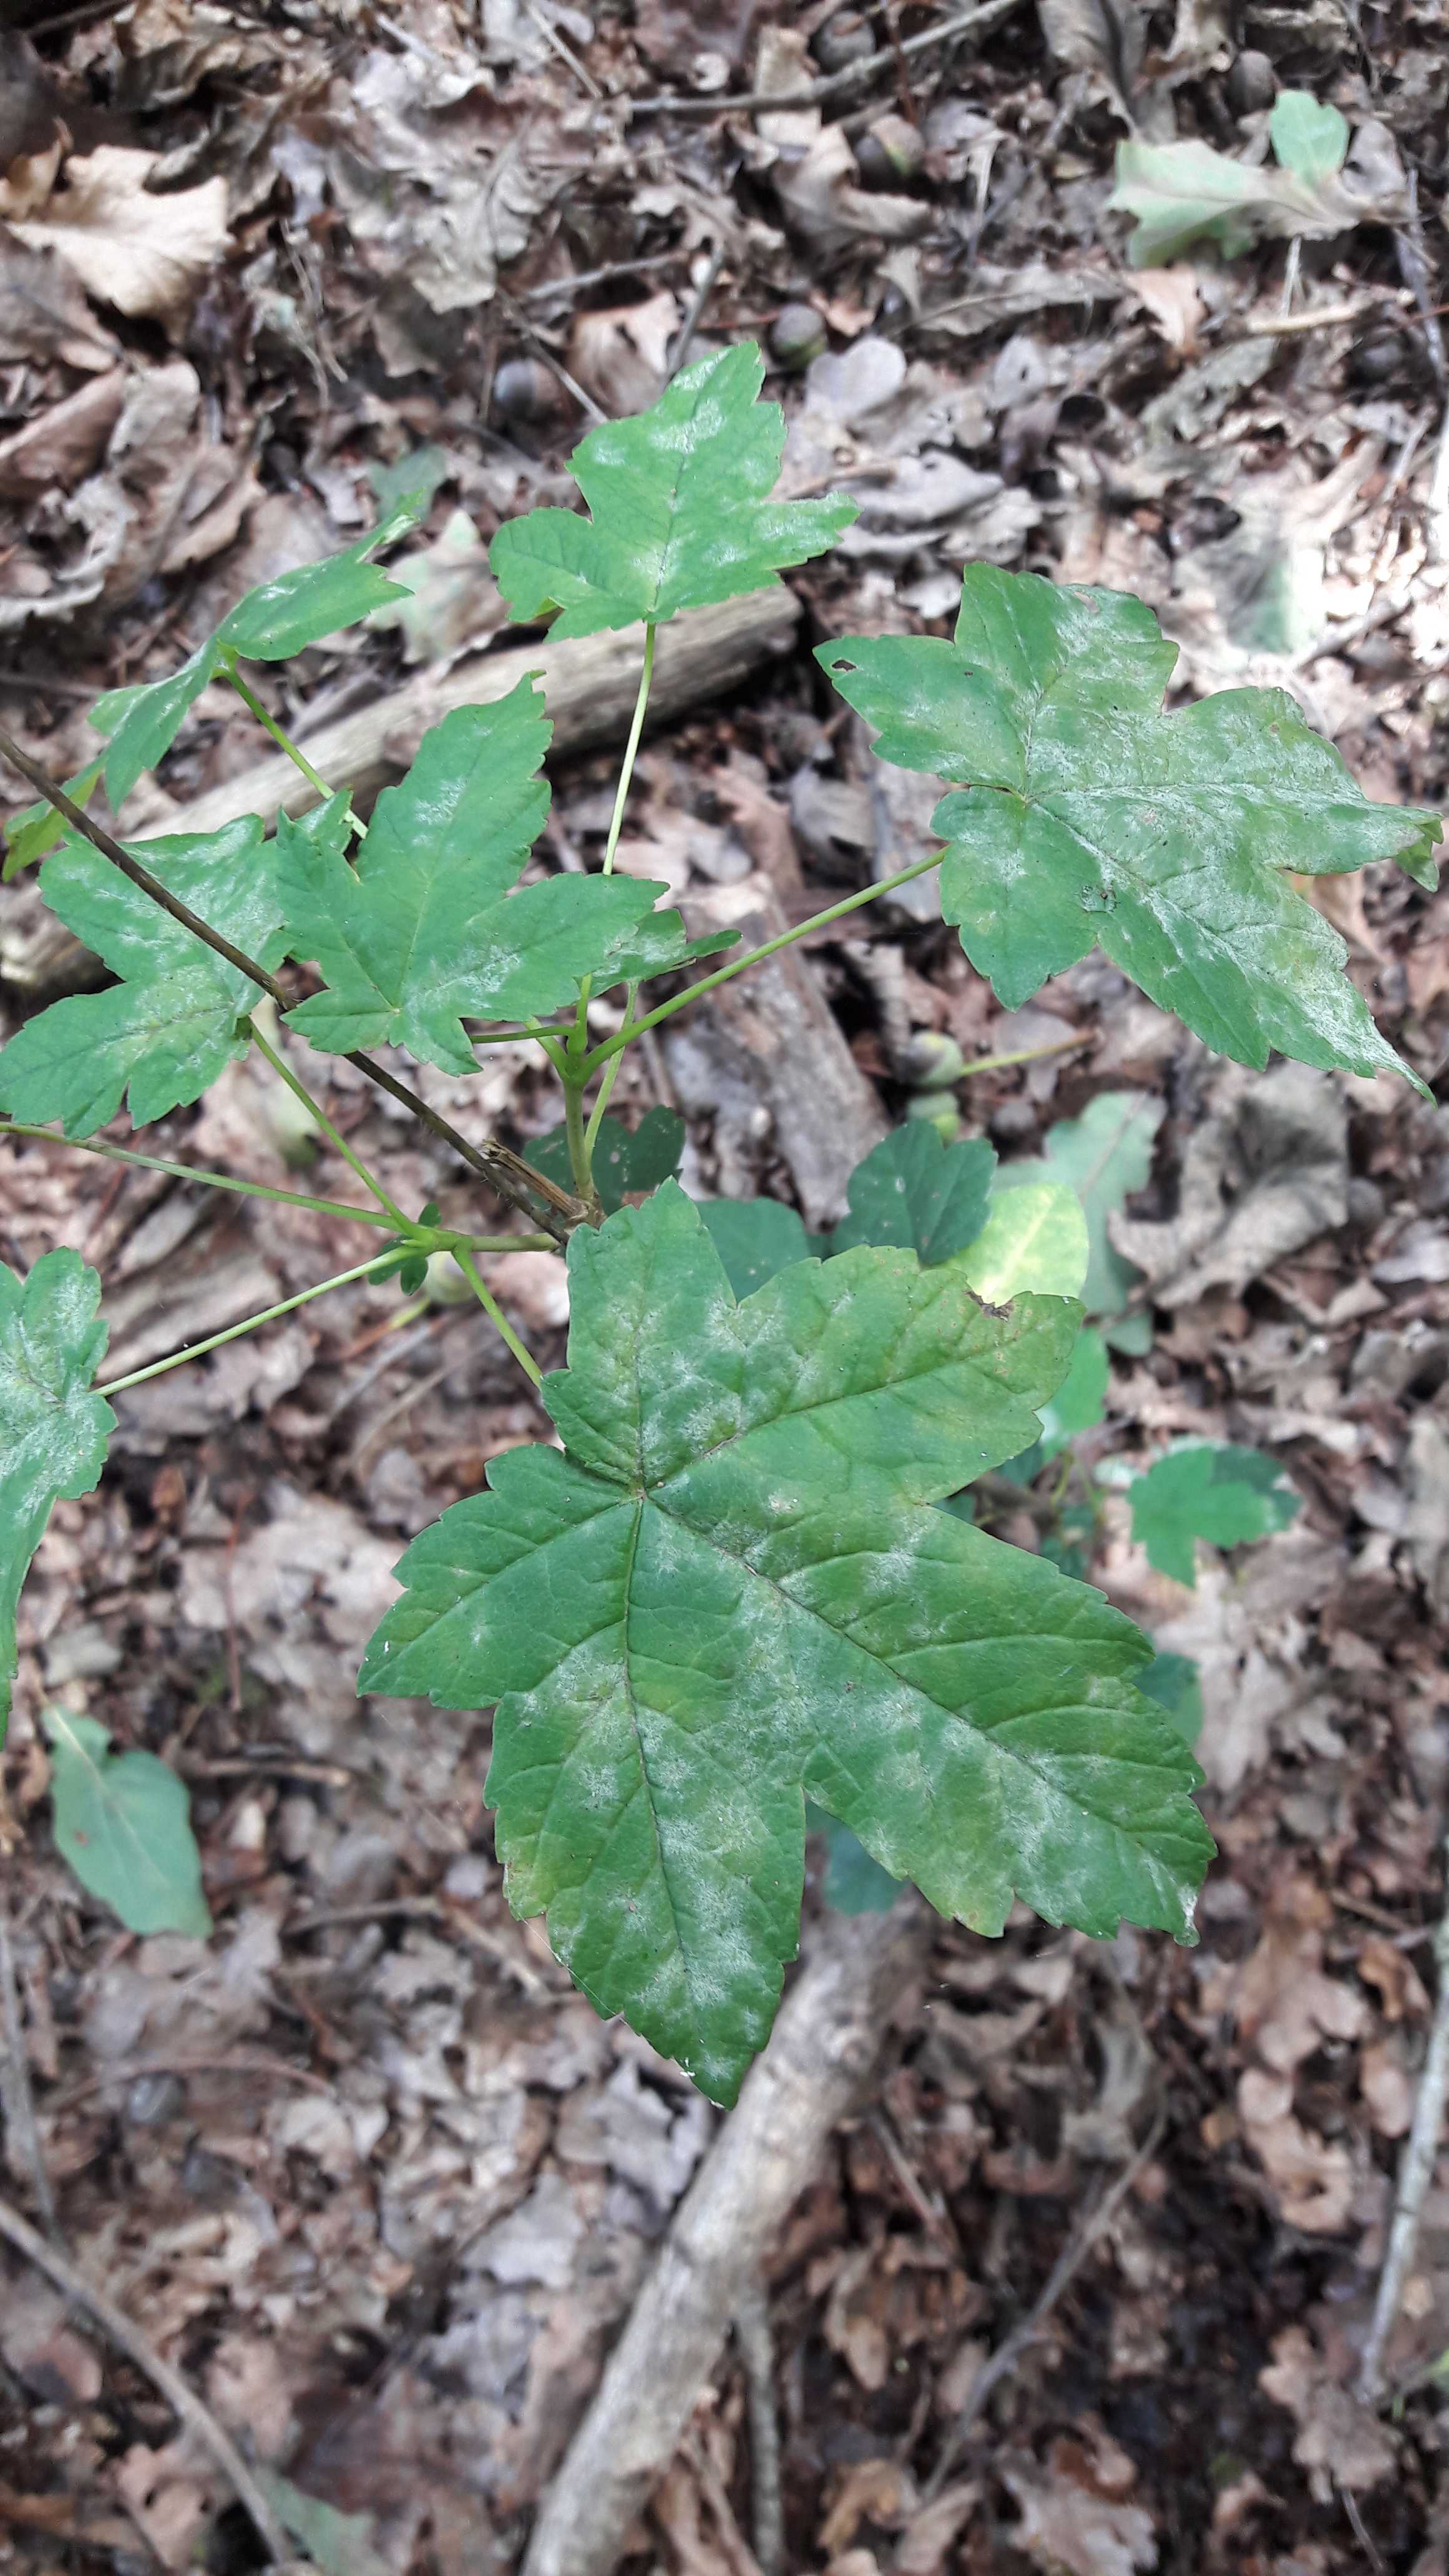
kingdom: Fungi
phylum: Ascomycota
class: Leotiomycetes
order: Helotiales
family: Erysiphaceae
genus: Sawadaea
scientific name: Sawadaea bicornis
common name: Maple mildew
